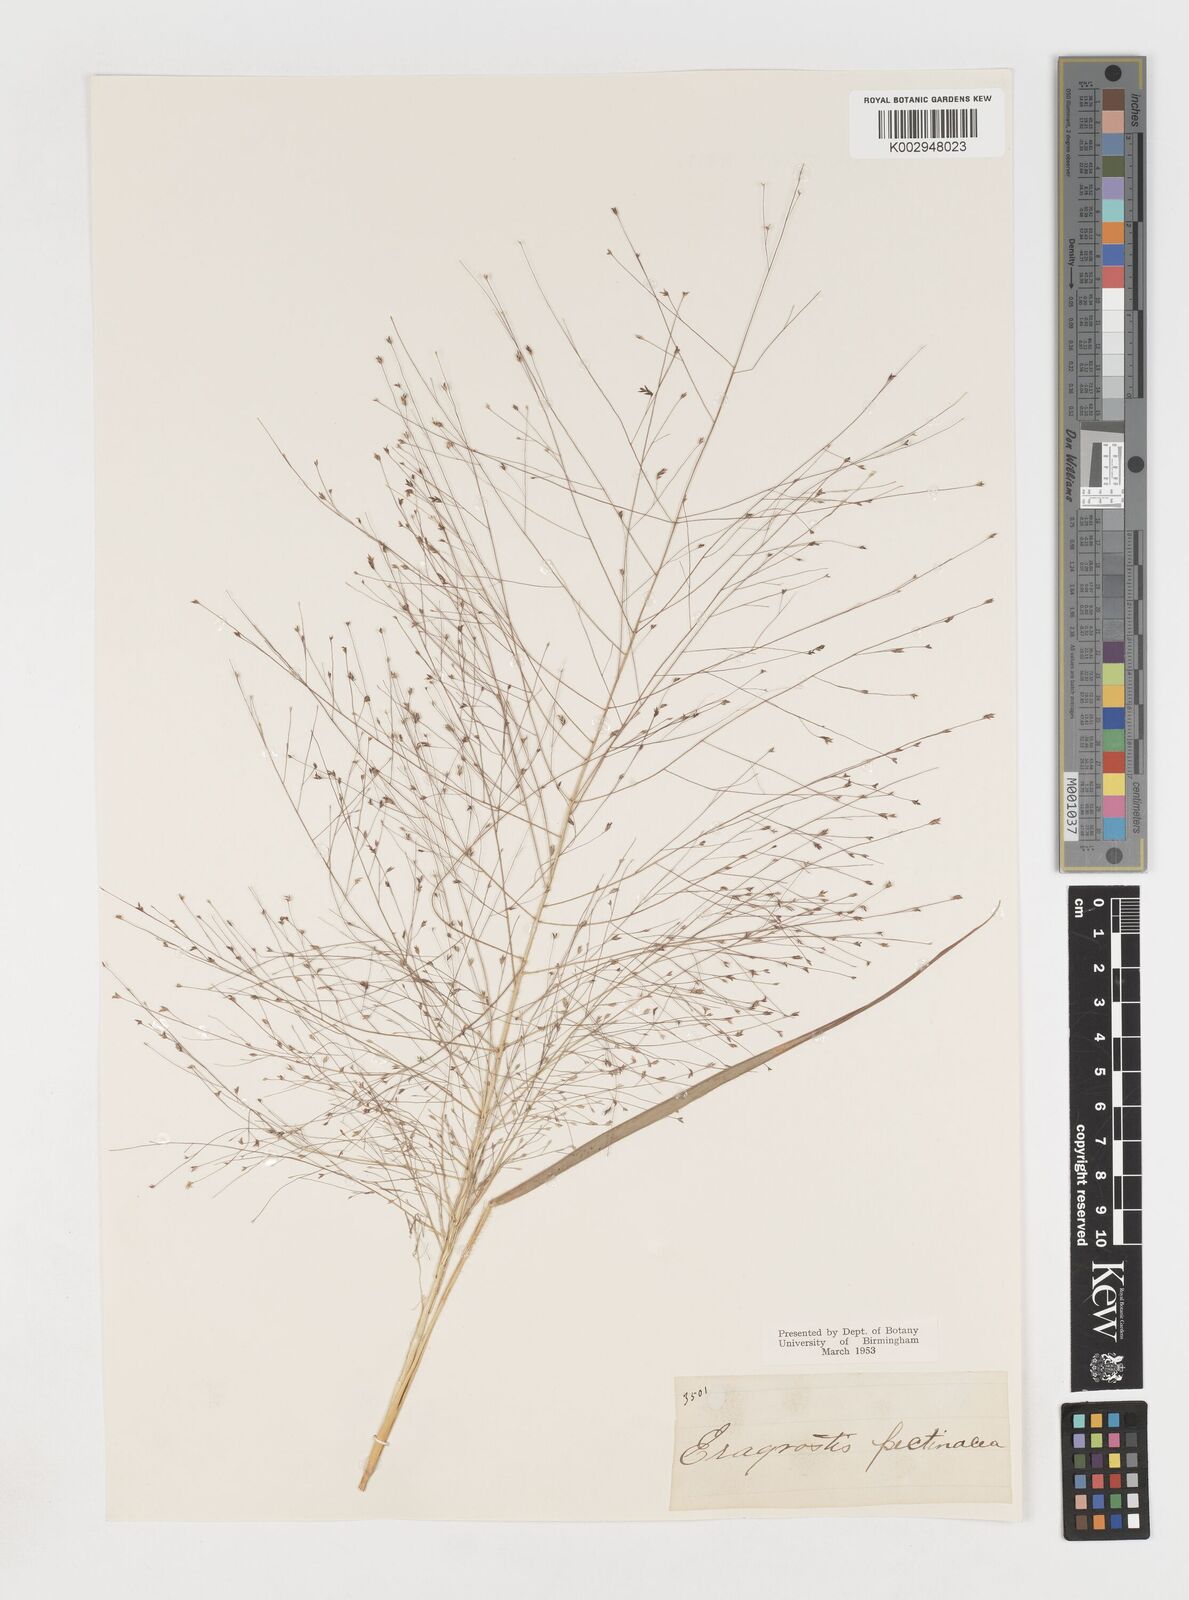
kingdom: Plantae
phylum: Tracheophyta
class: Liliopsida
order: Poales
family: Poaceae
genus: Eragrostis
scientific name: Eragrostis spectabilis
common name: Petticoat-climber
